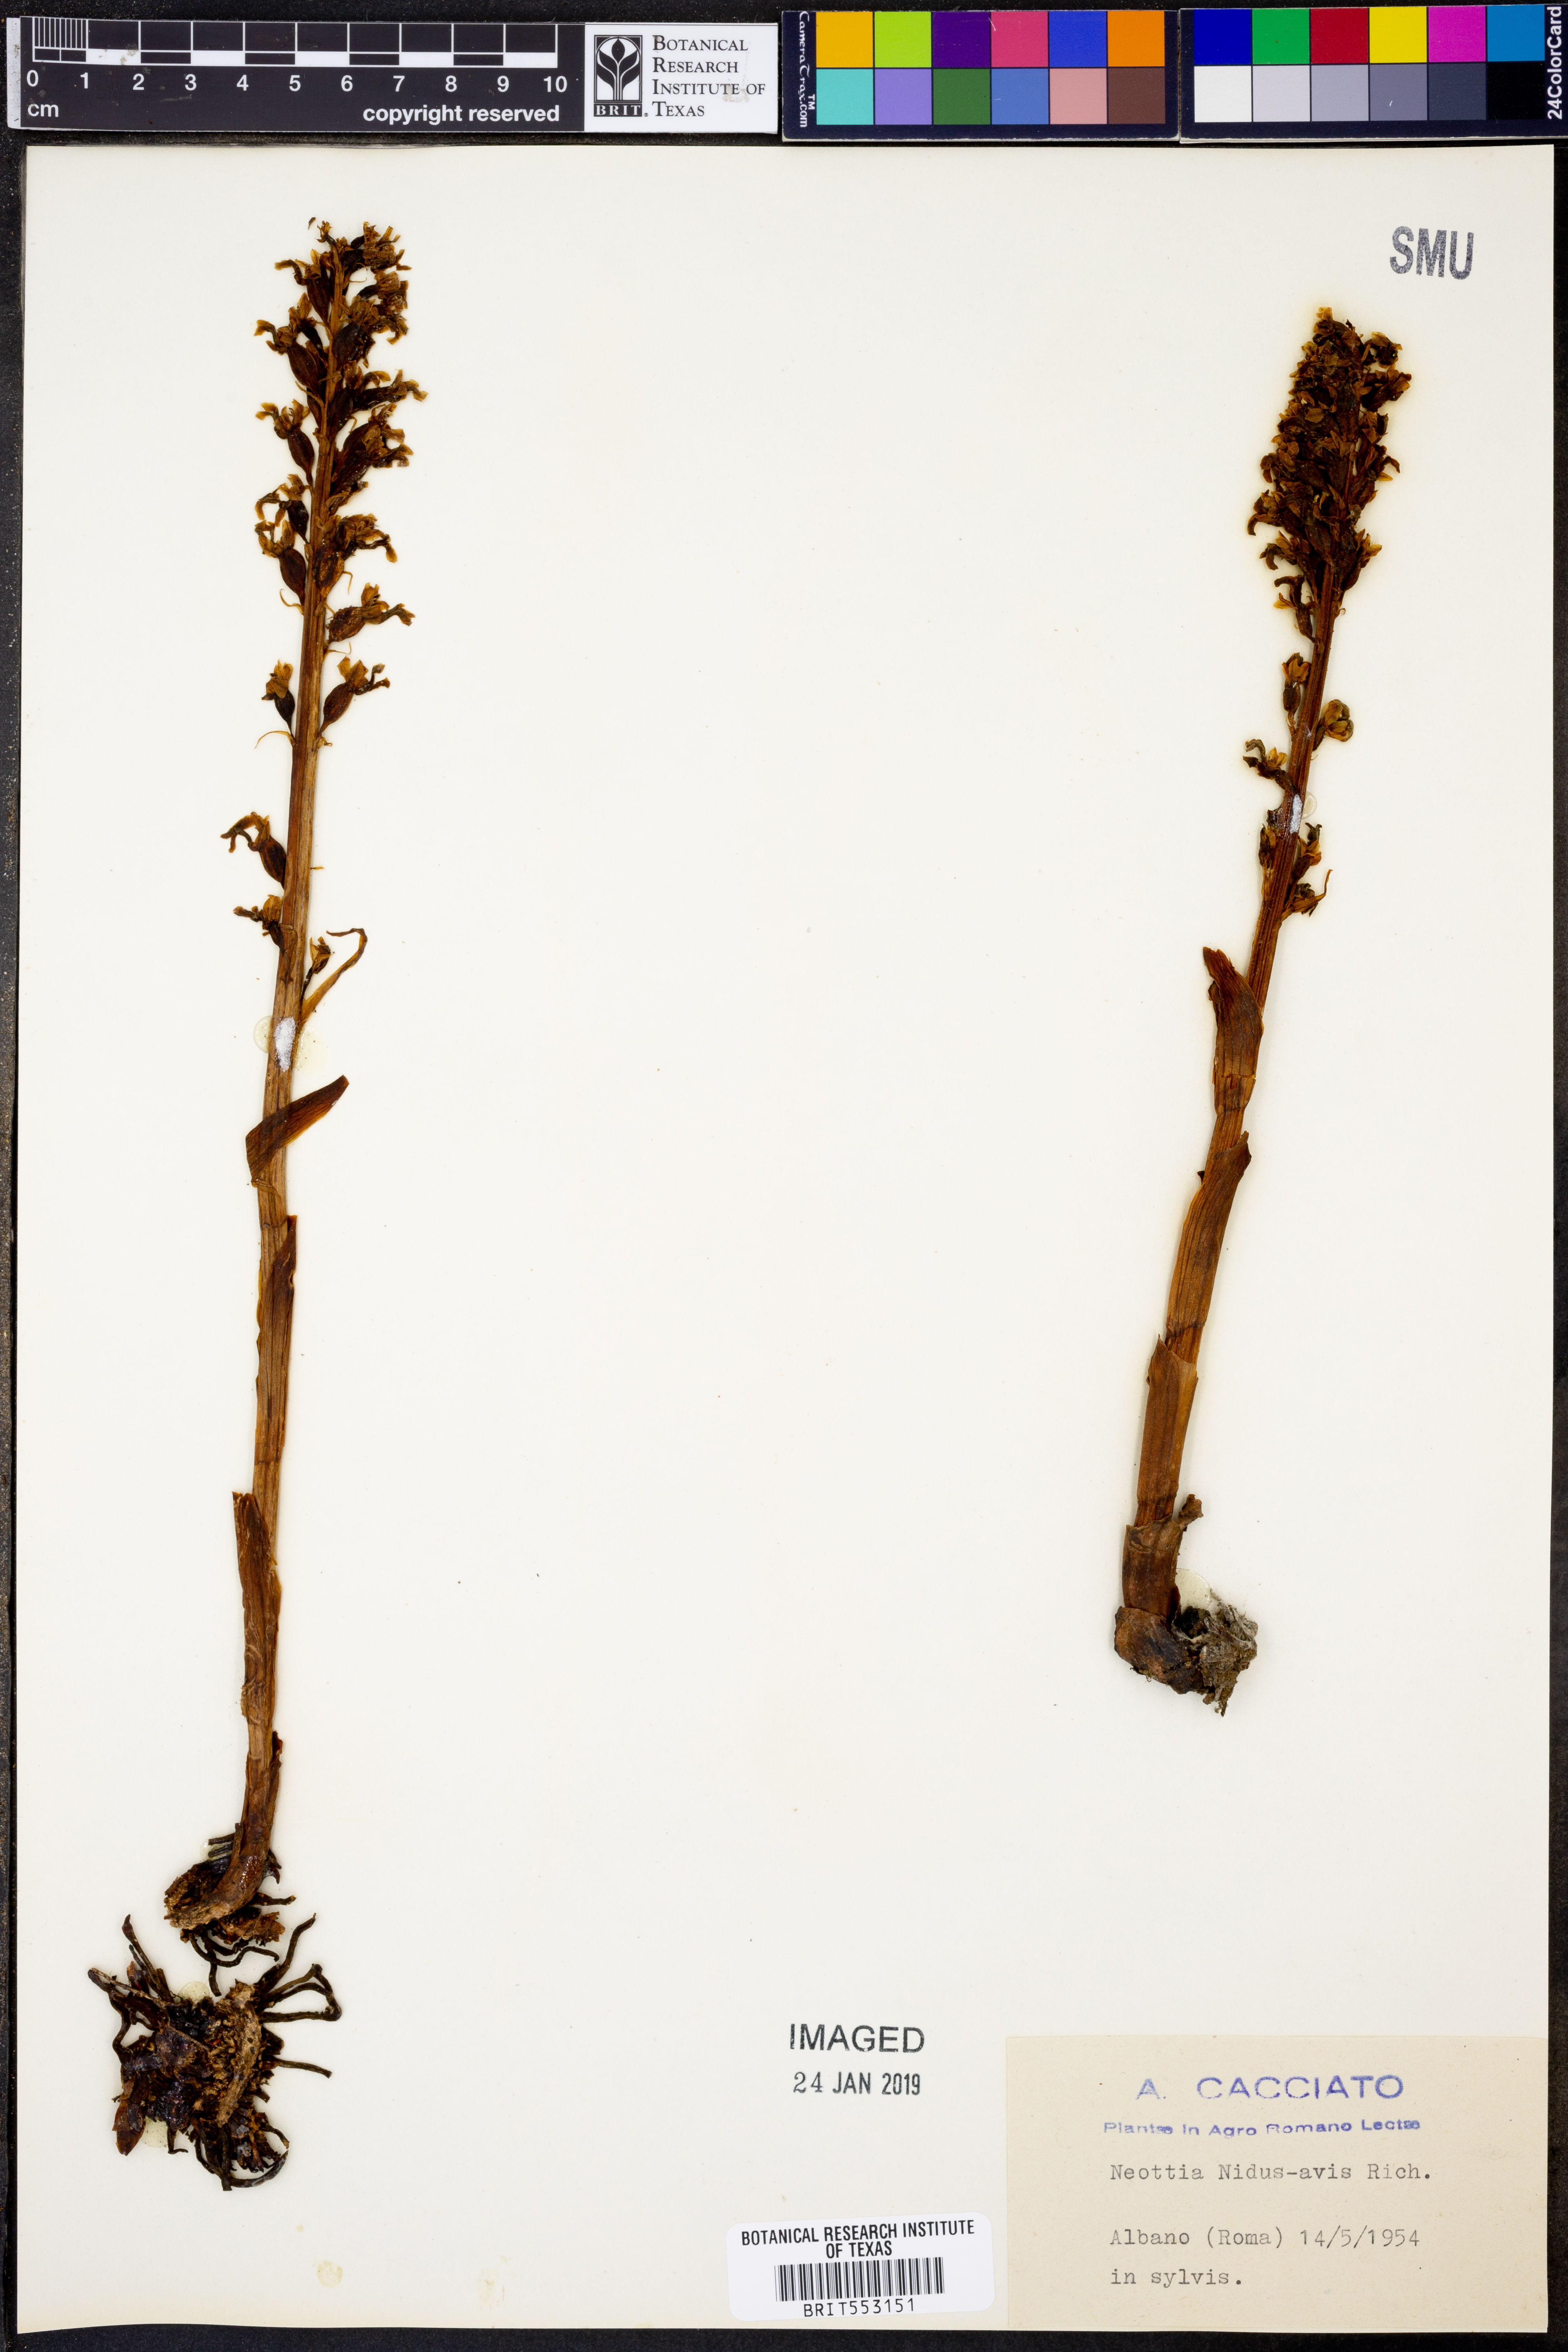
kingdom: Plantae
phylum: Tracheophyta
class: Liliopsida
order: Asparagales
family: Orchidaceae
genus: Neottia
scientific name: Neottia nidus-avis
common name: Bird's-nest orchid
